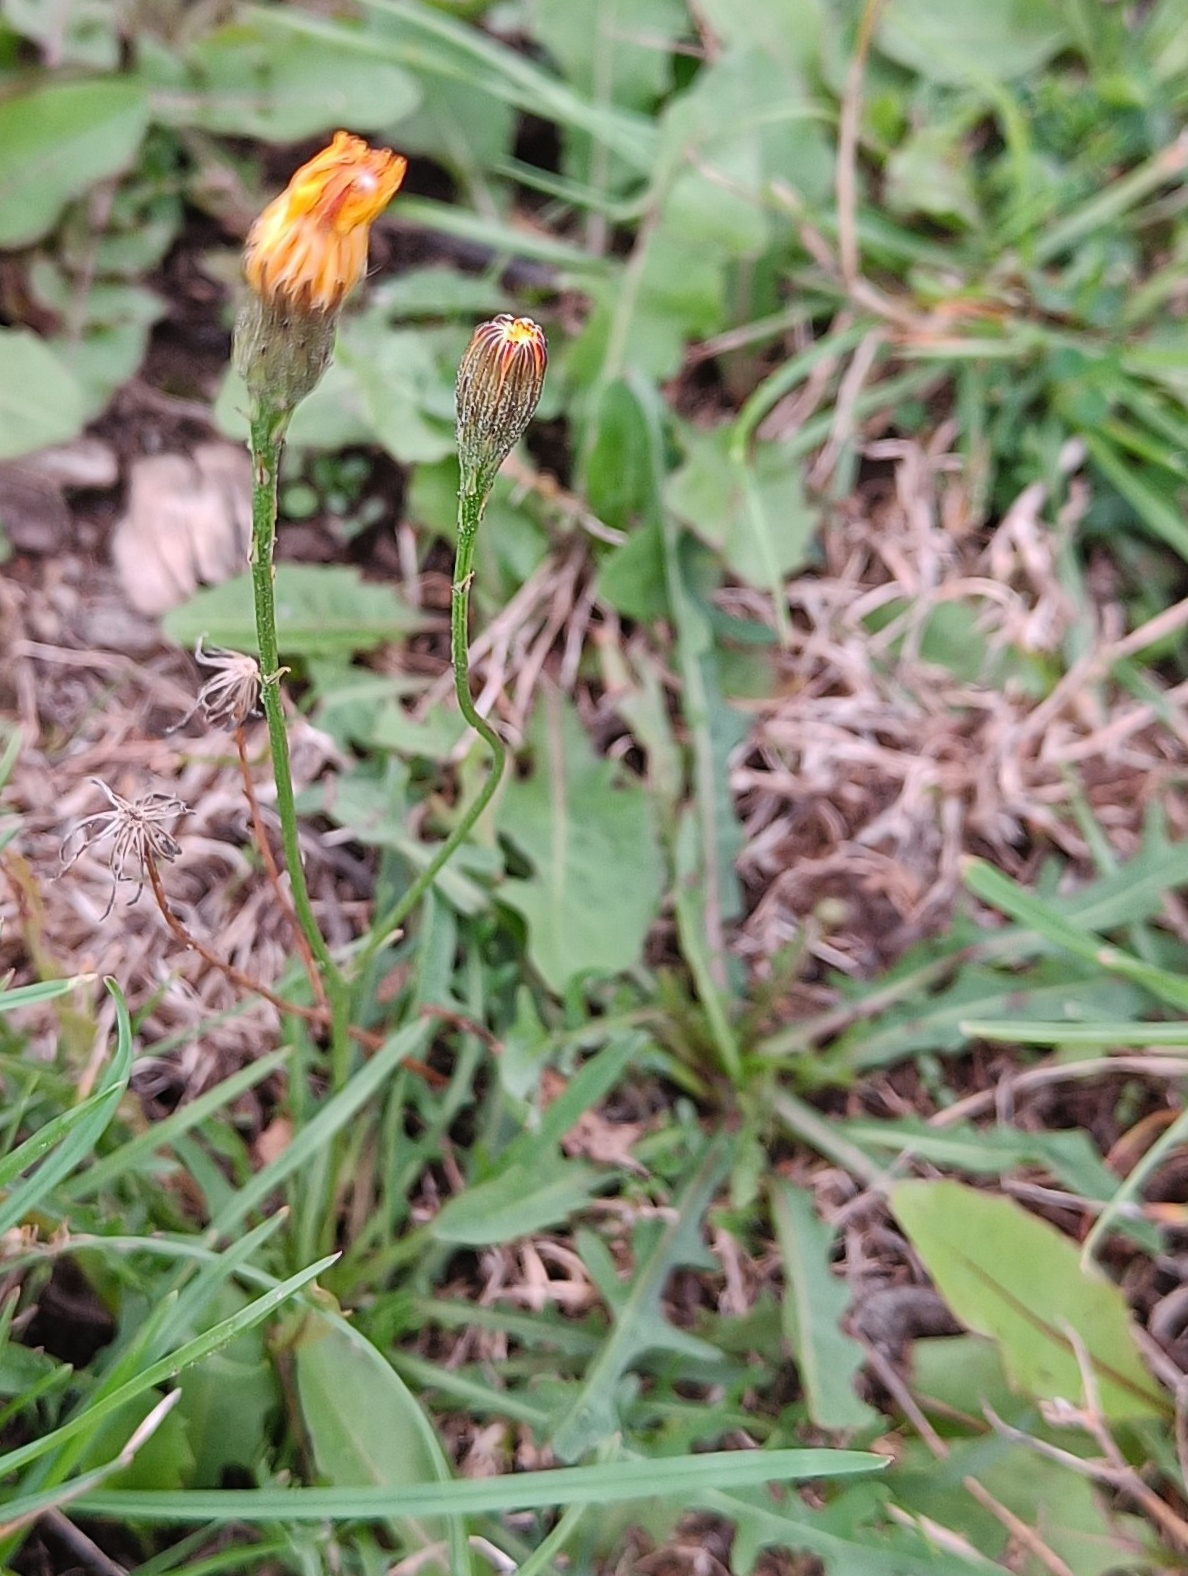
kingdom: Plantae
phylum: Tracheophyta
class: Magnoliopsida
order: Asterales
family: Asteraceae
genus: Scorzoneroides
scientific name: Scorzoneroides autumnalis
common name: Høst-borst
